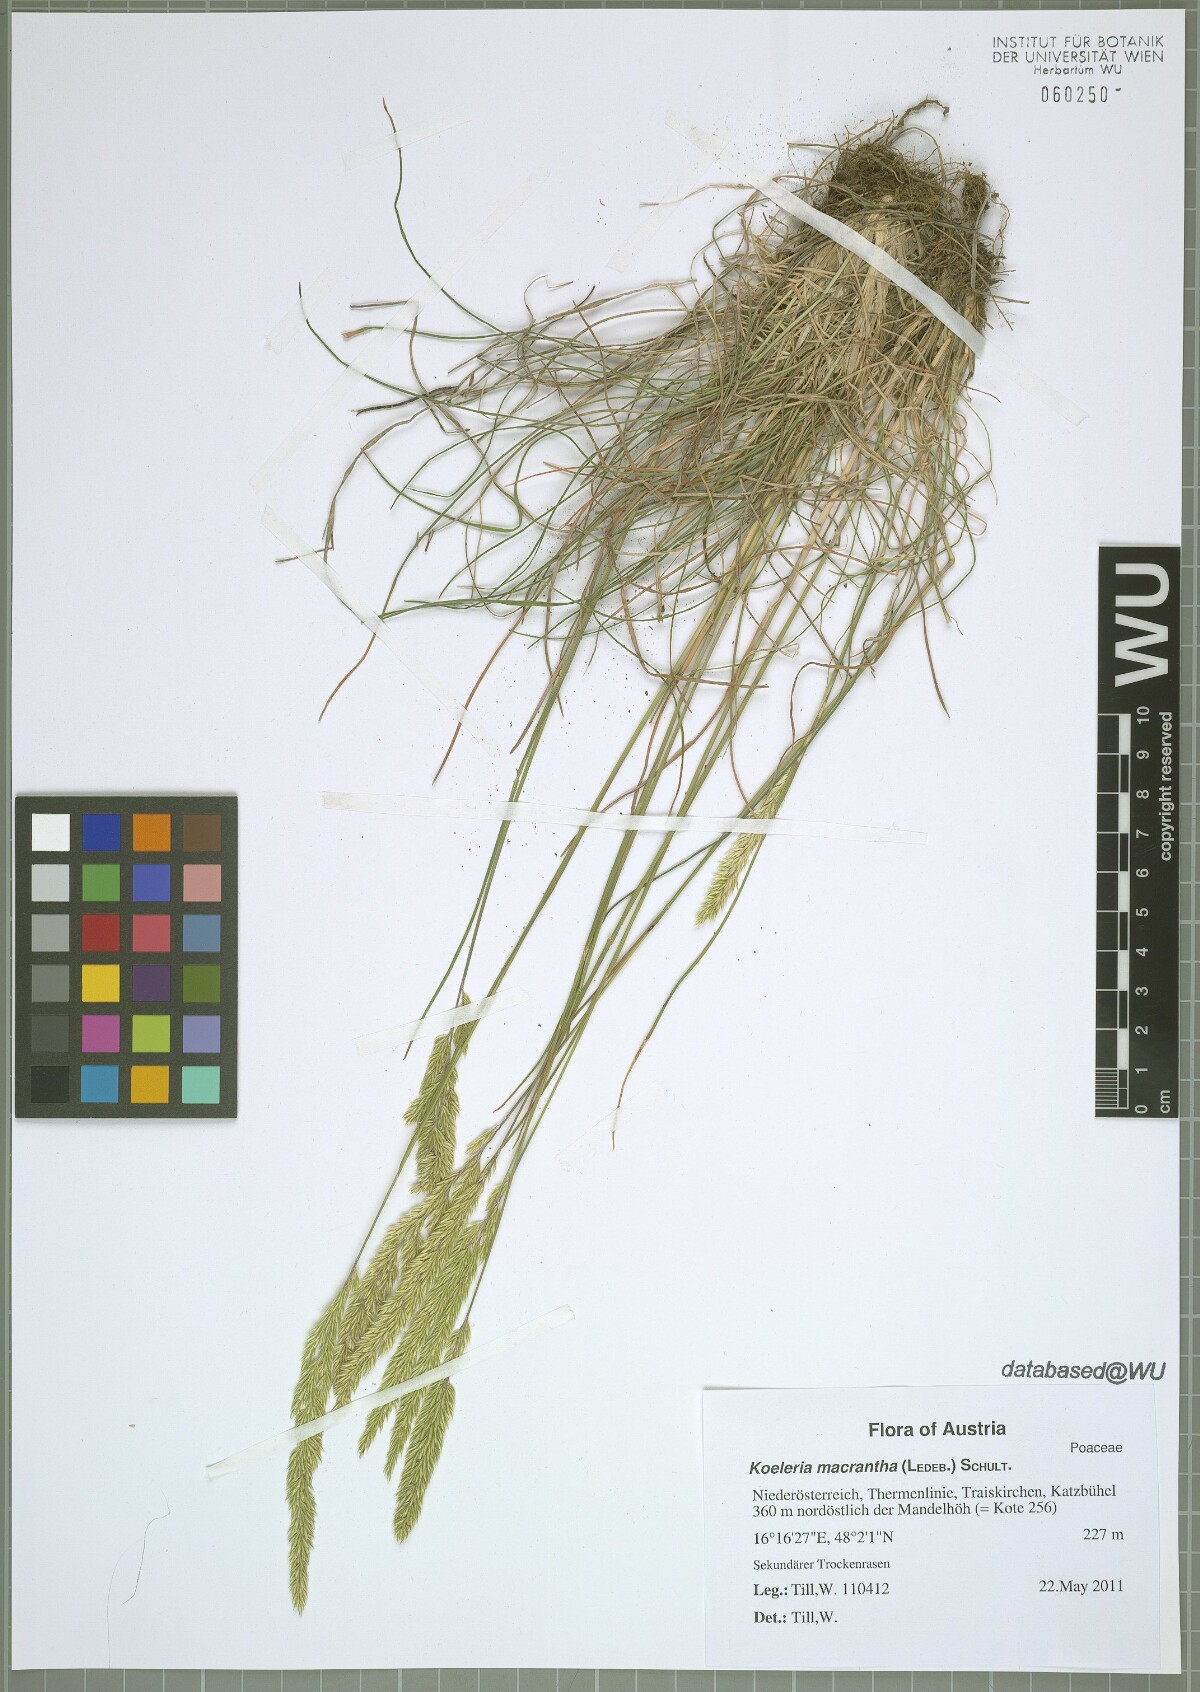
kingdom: Plantae
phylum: Tracheophyta
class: Liliopsida
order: Poales
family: Poaceae
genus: Koeleria
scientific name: Koeleria macrantha
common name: Crested hair-grass
